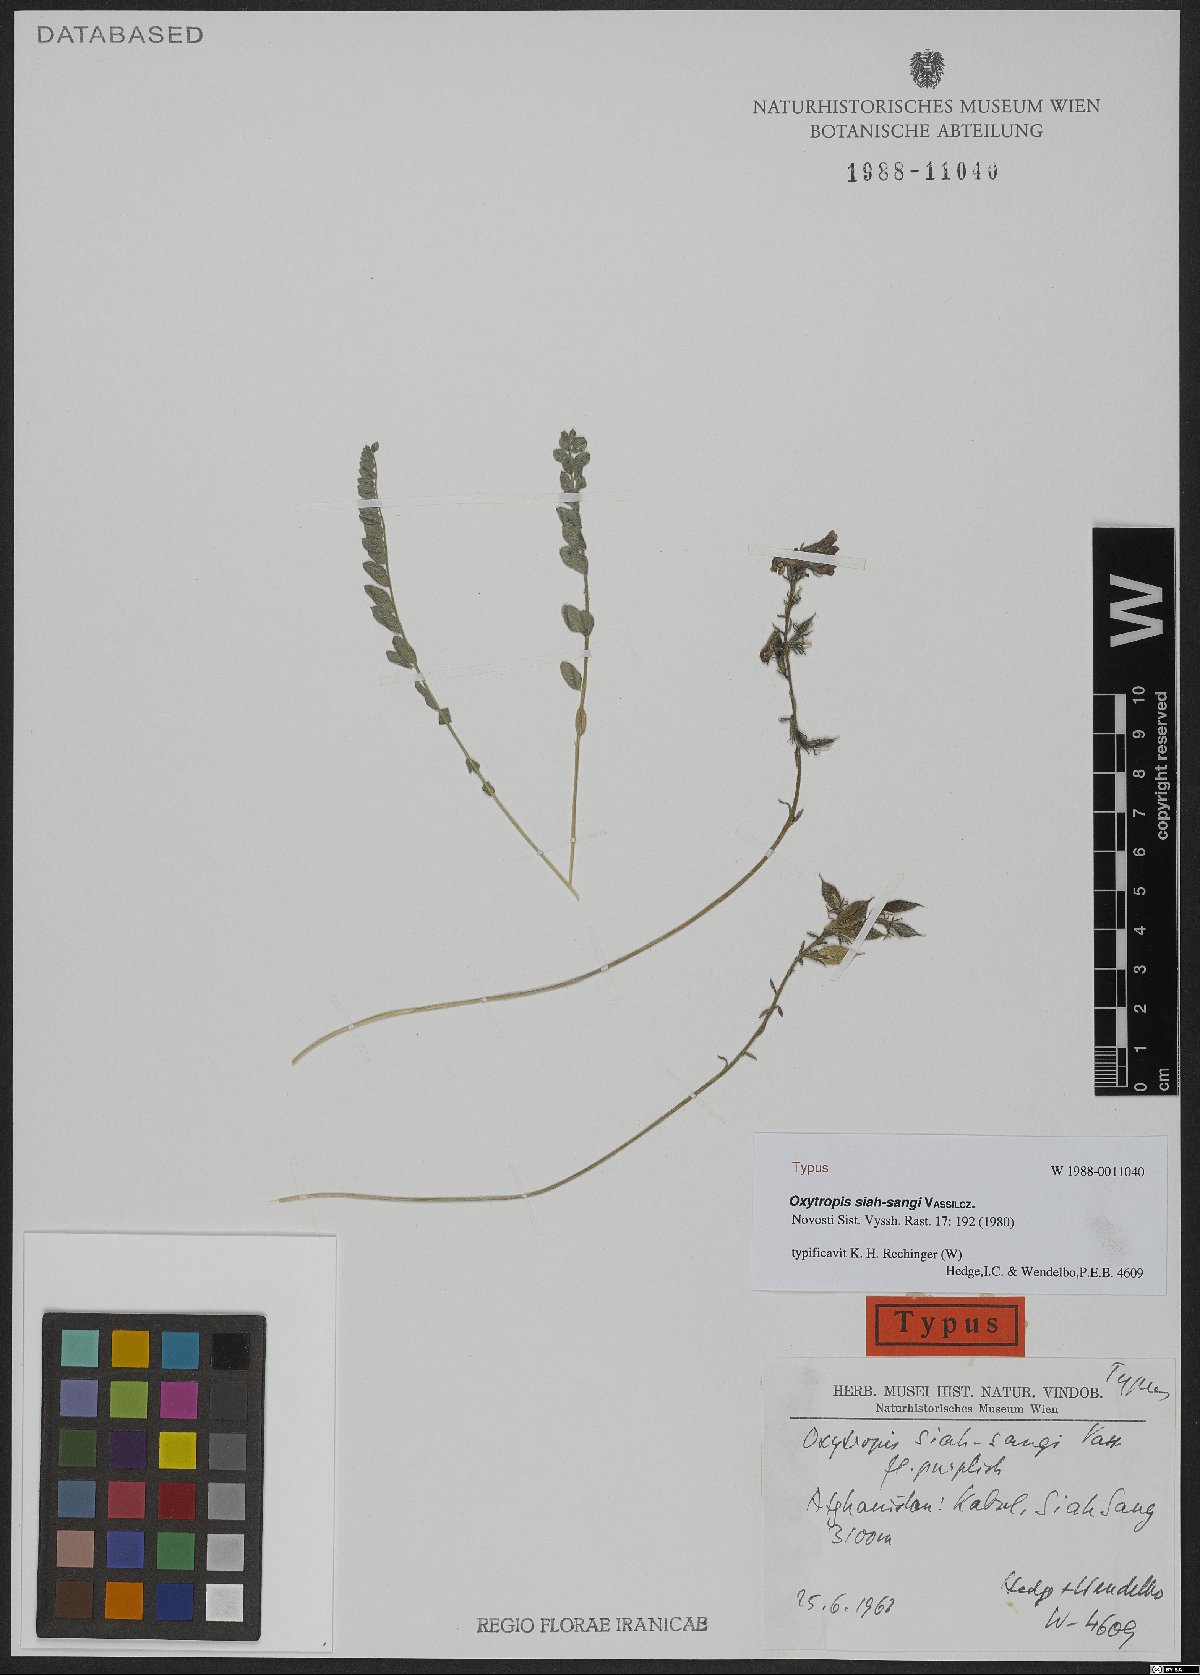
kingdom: Plantae
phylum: Tracheophyta
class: Magnoliopsida
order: Fabales
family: Fabaceae
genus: Oxytropis
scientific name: Oxytropis siah-sangi
